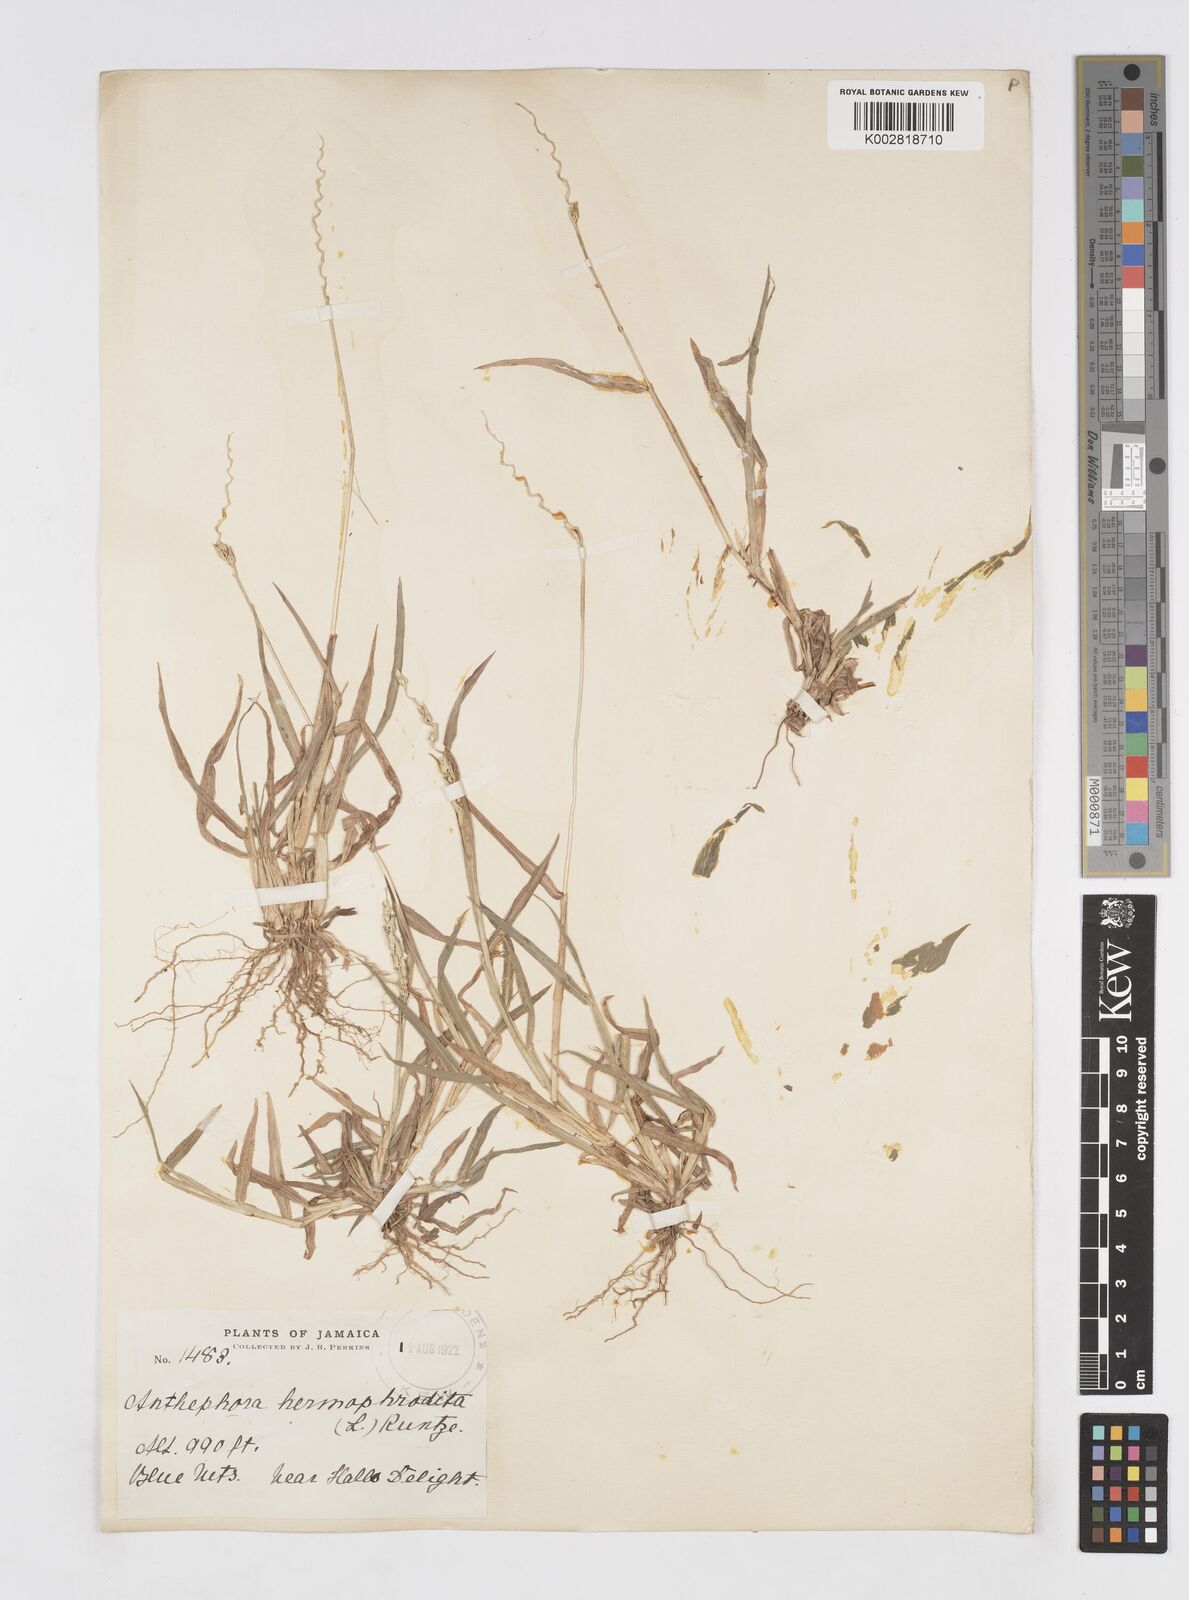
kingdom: Plantae
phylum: Tracheophyta
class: Liliopsida
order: Poales
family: Poaceae
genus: Anthephora
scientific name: Anthephora hermaphrodita
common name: Oldfield grass
